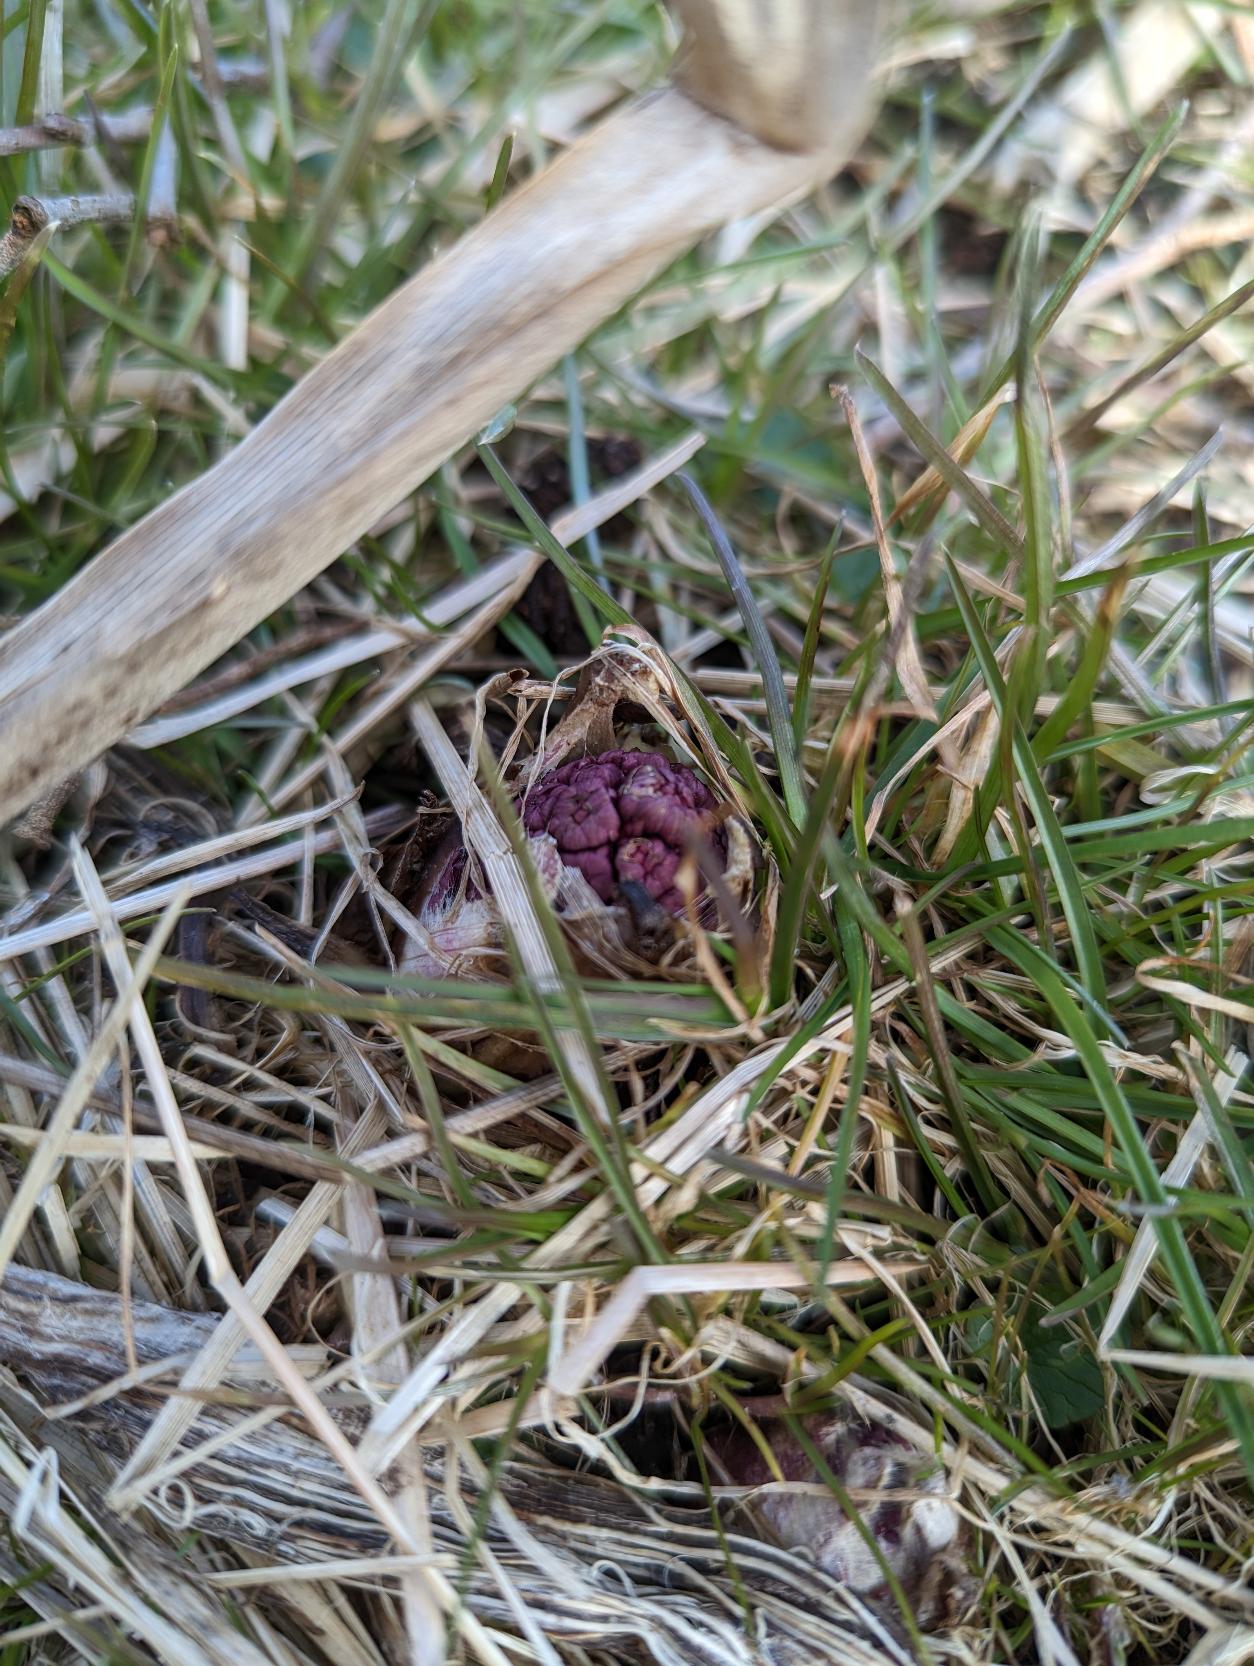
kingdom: Plantae
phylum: Tracheophyta
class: Magnoliopsida
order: Asterales
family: Asteraceae
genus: Petasites
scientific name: Petasites hybridus
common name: Rød hestehov
